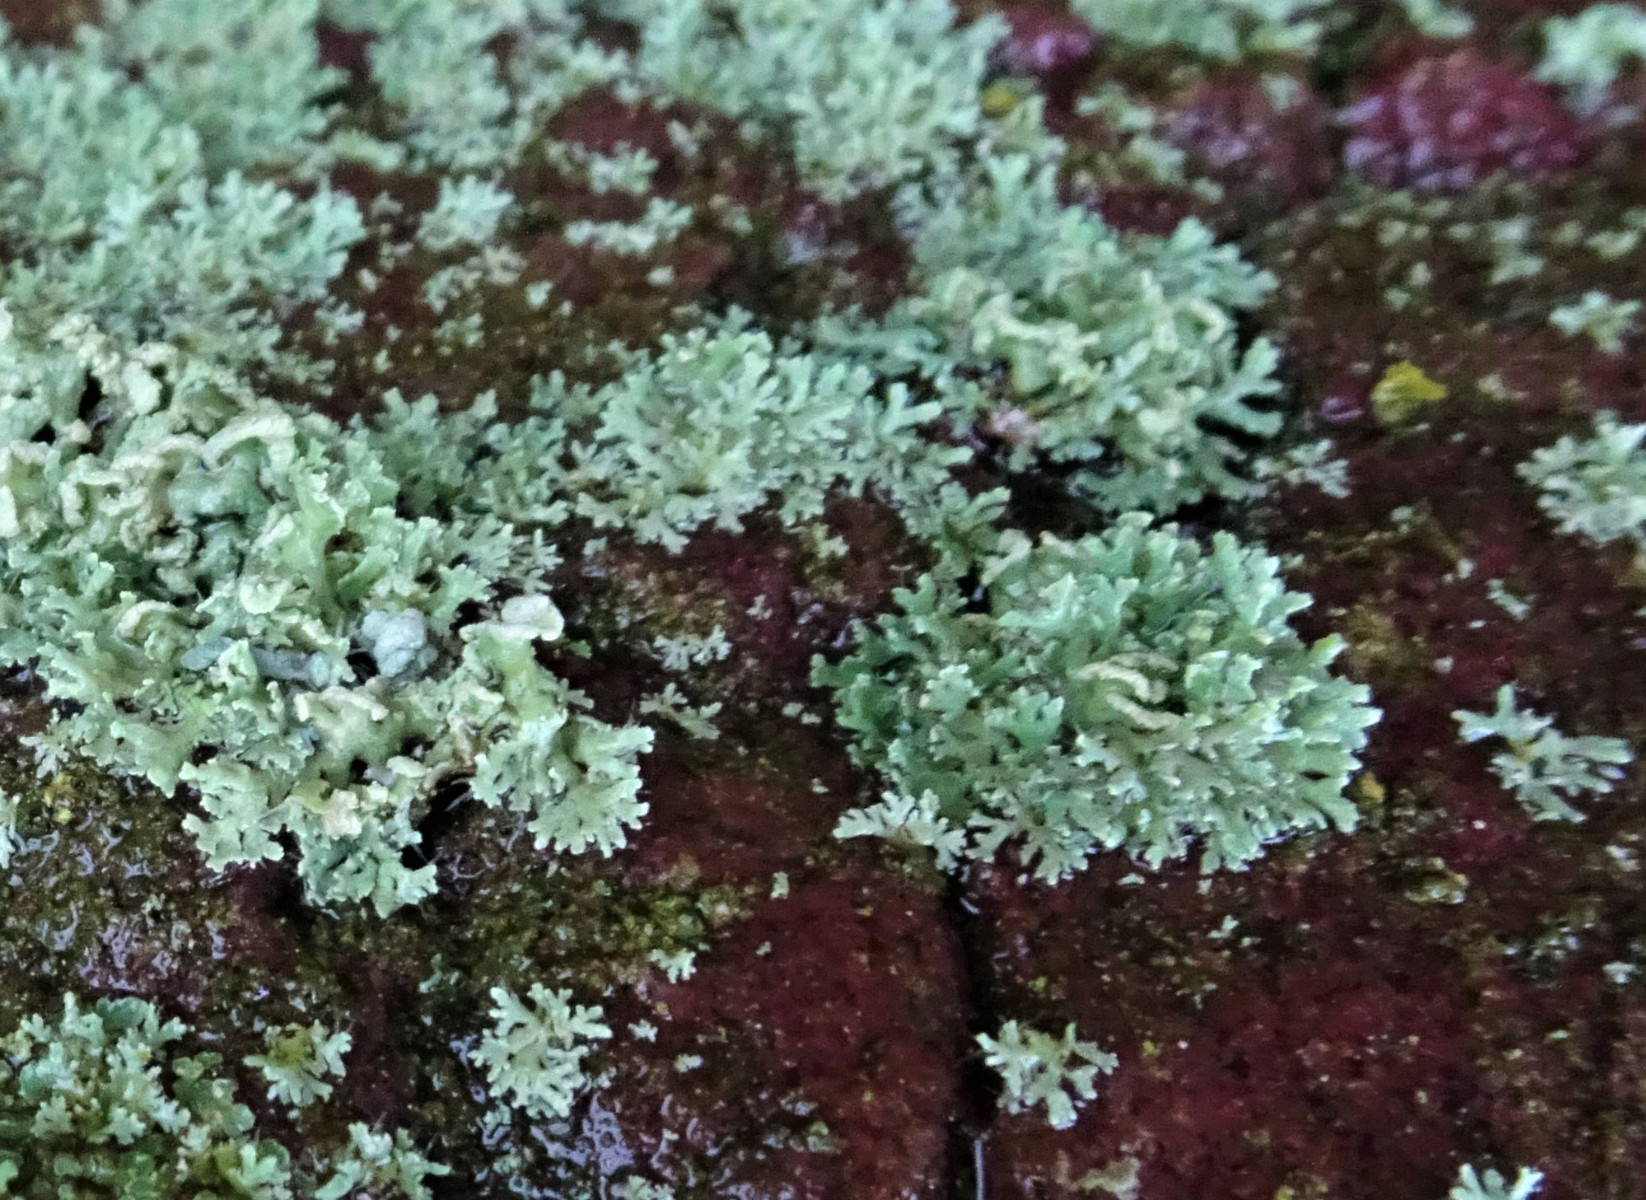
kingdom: Fungi
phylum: Ascomycota
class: Lecanoromycetes
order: Caliciales
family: Physciaceae
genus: Physcia
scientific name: Physcia tenella
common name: spæd rosetlav
